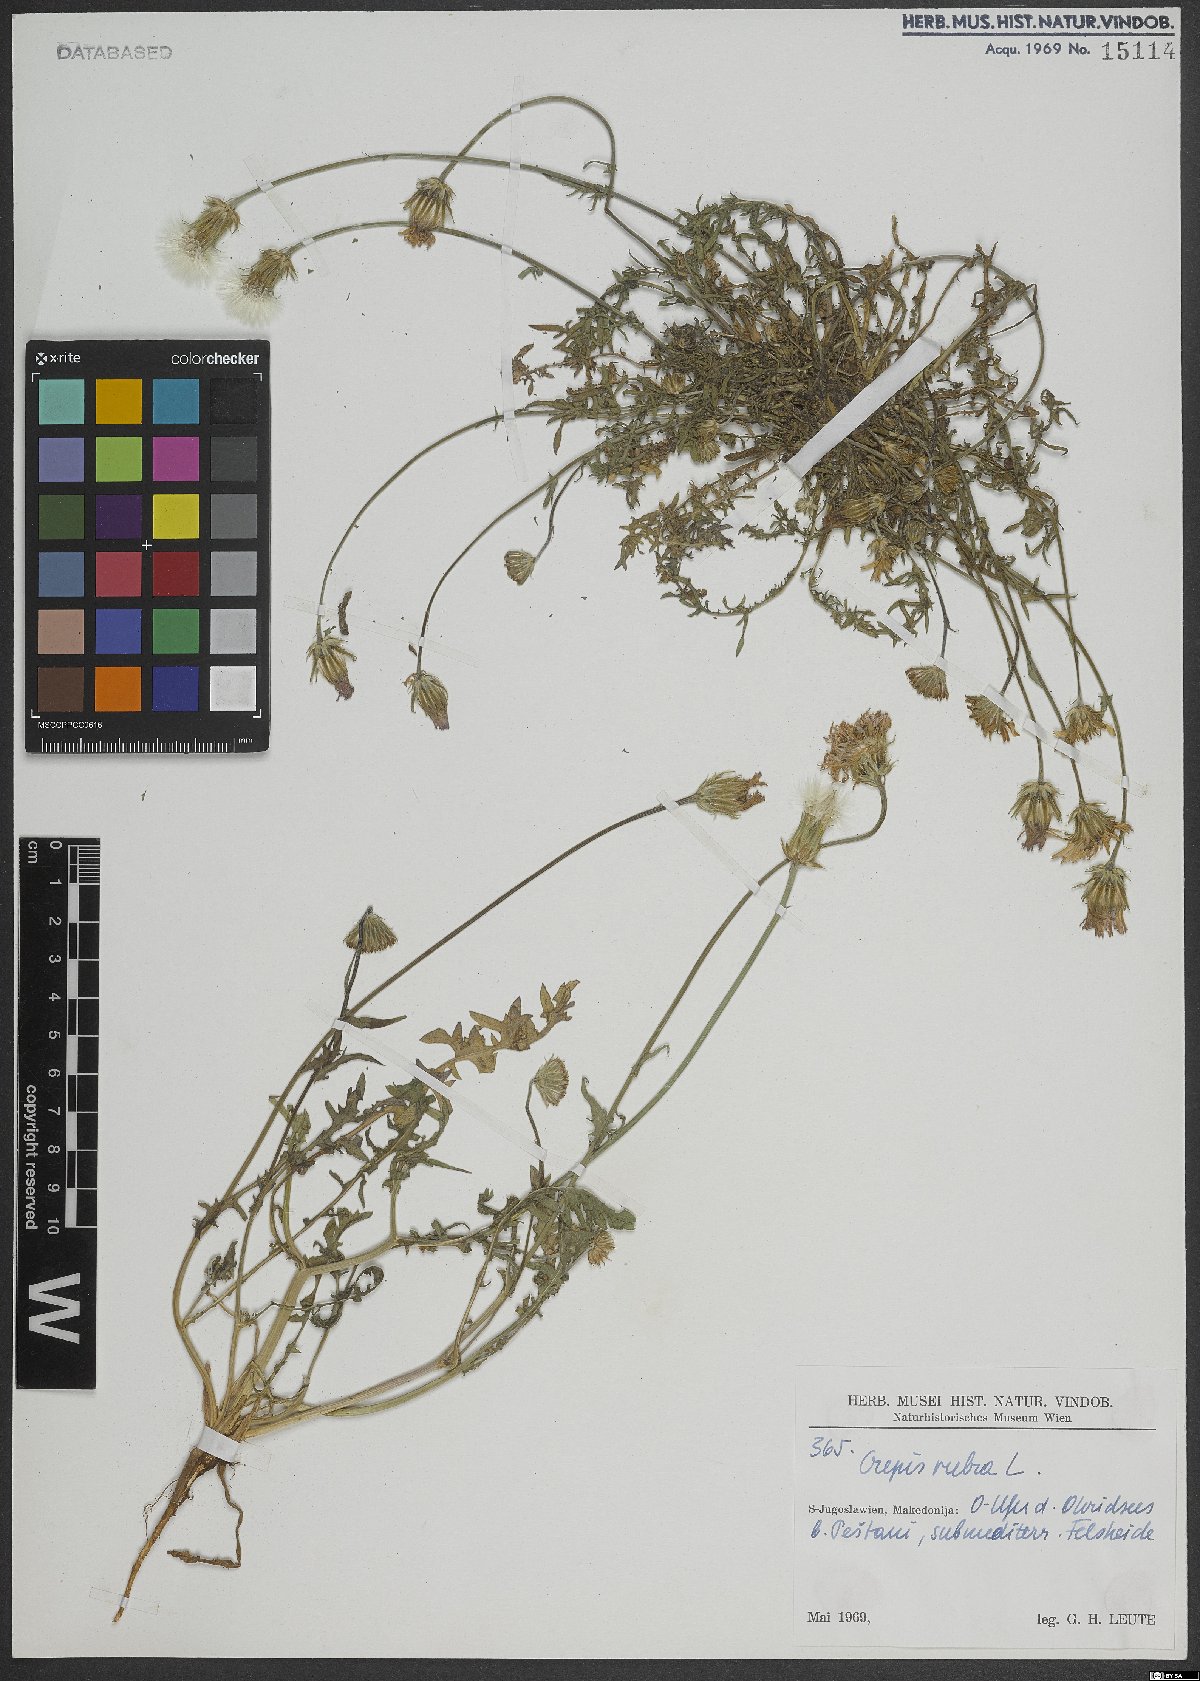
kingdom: Plantae
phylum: Tracheophyta
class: Magnoliopsida
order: Asterales
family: Asteraceae
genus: Crepis
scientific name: Crepis rubra
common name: Pink hawk's-beard
